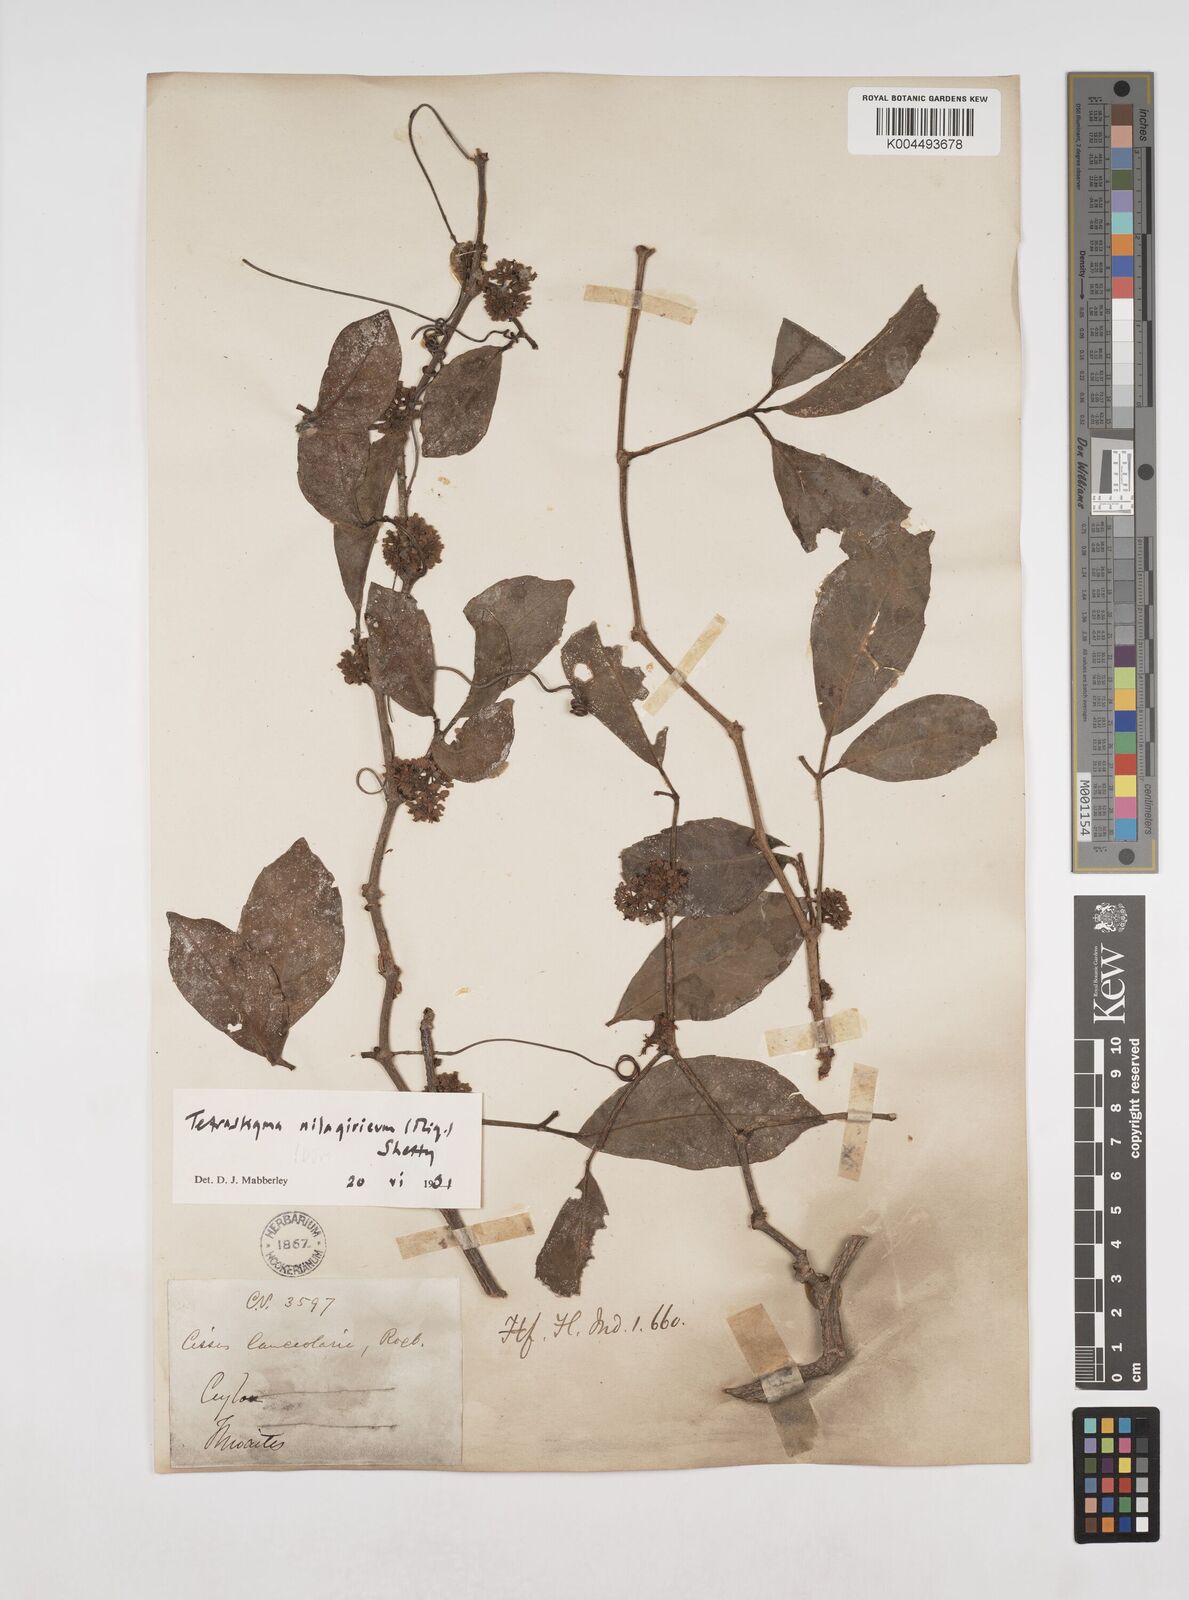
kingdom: Plantae
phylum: Tracheophyta
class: Magnoliopsida
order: Vitales
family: Vitaceae
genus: Tetrastigma
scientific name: Tetrastigma leucostaphylum
